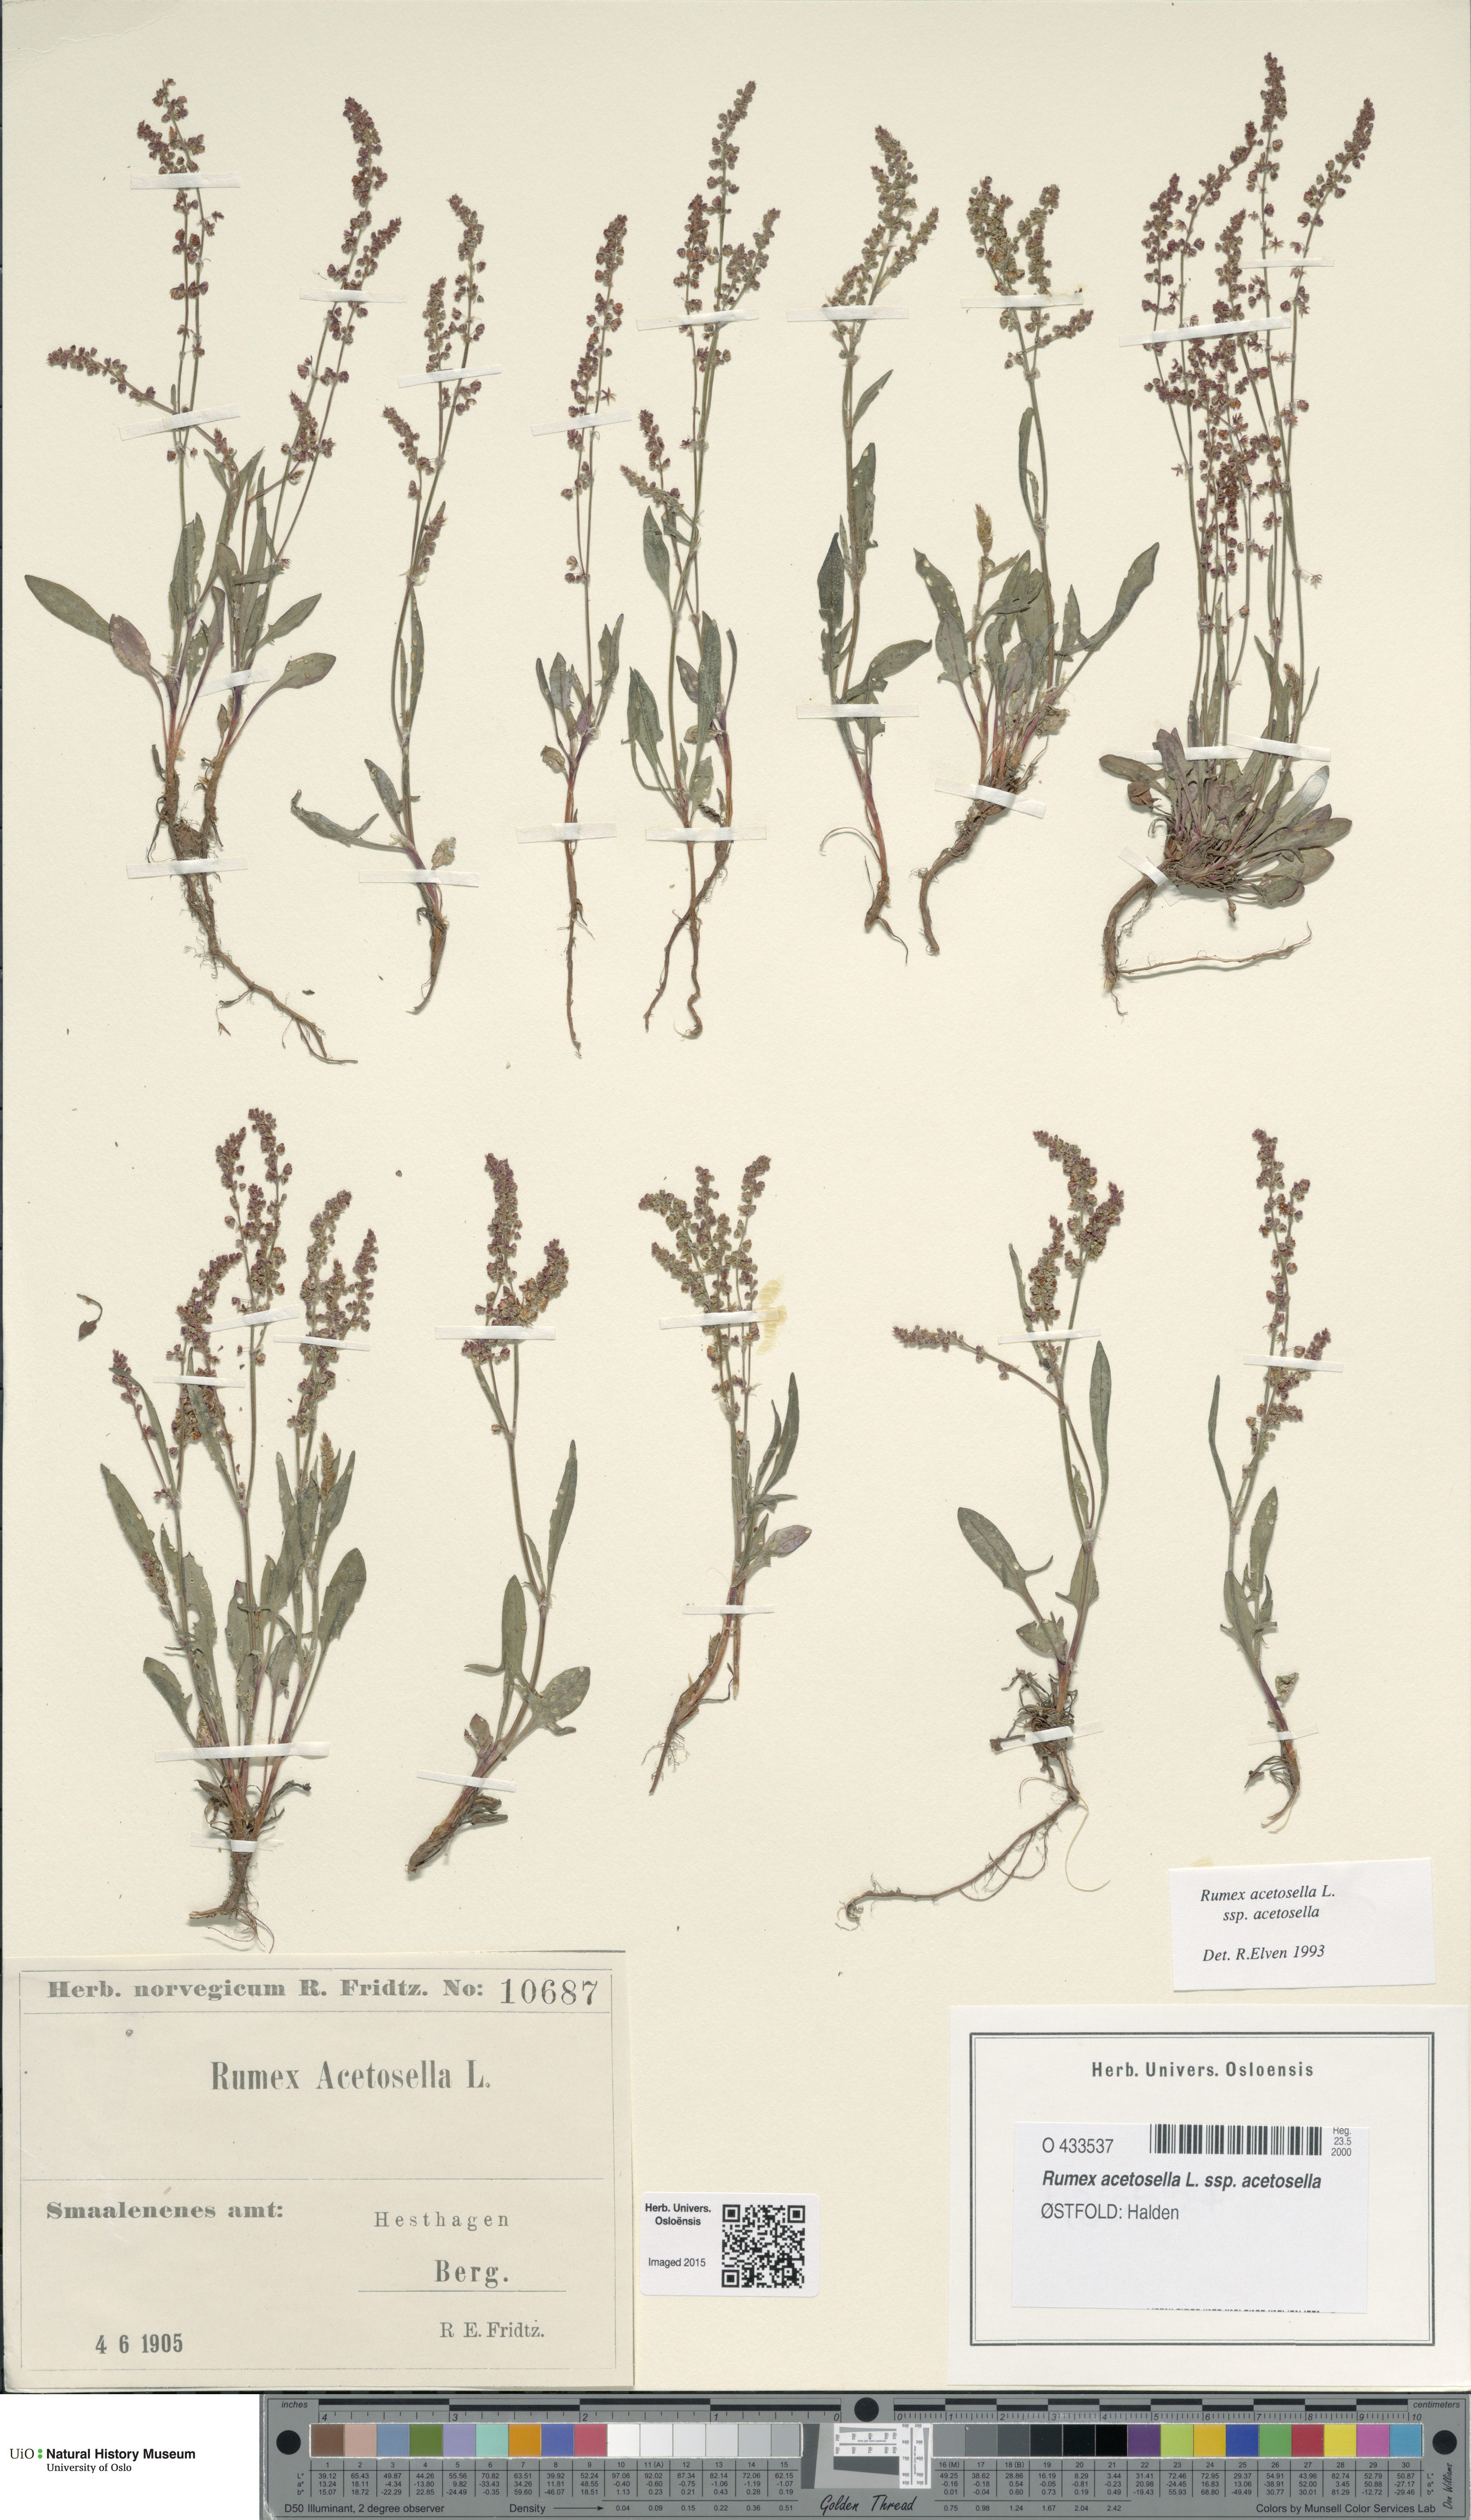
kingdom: Plantae
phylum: Tracheophyta
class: Magnoliopsida
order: Caryophyllales
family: Polygonaceae
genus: Rumex
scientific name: Rumex acetosella
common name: Common sheep sorrel
